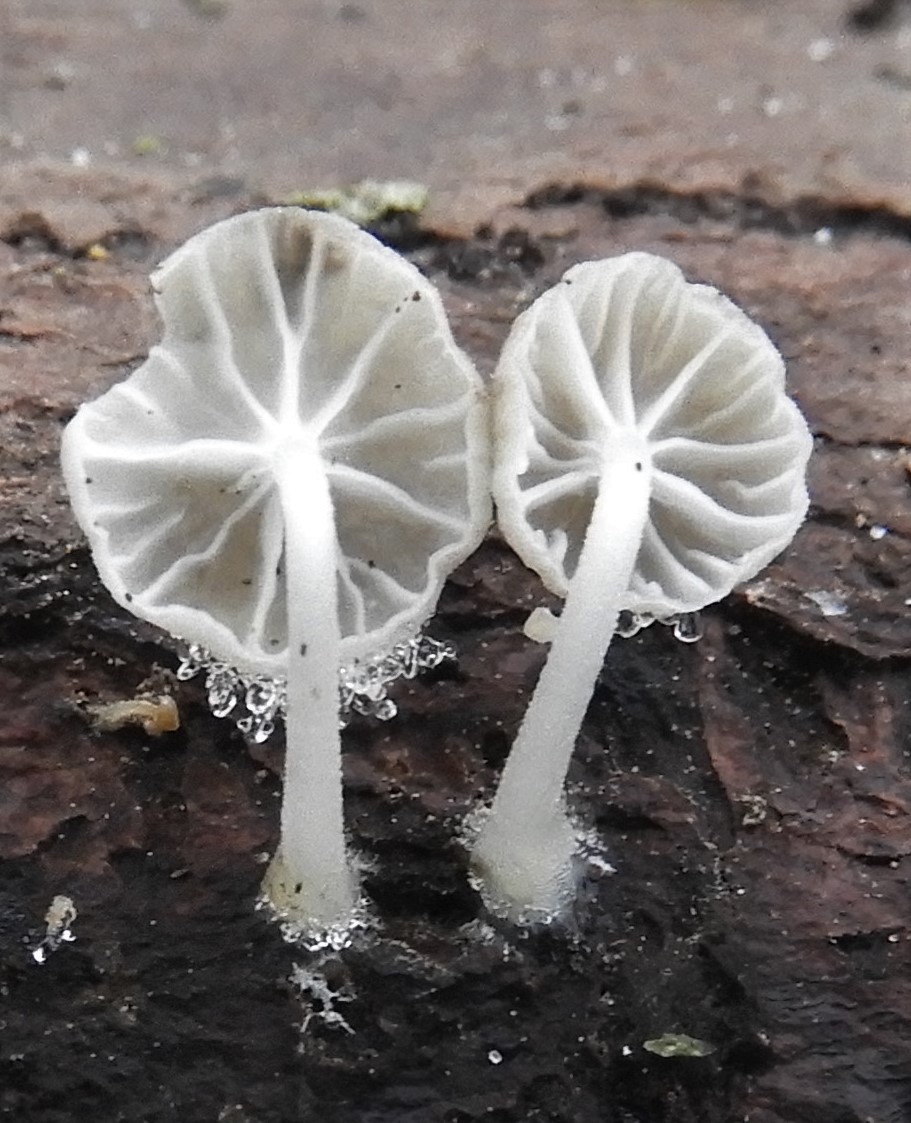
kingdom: Fungi
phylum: Basidiomycota
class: Agaricomycetes
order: Agaricales
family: Porotheleaceae
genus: Phloeomana
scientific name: Phloeomana speirea
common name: kvist-huesvamp
